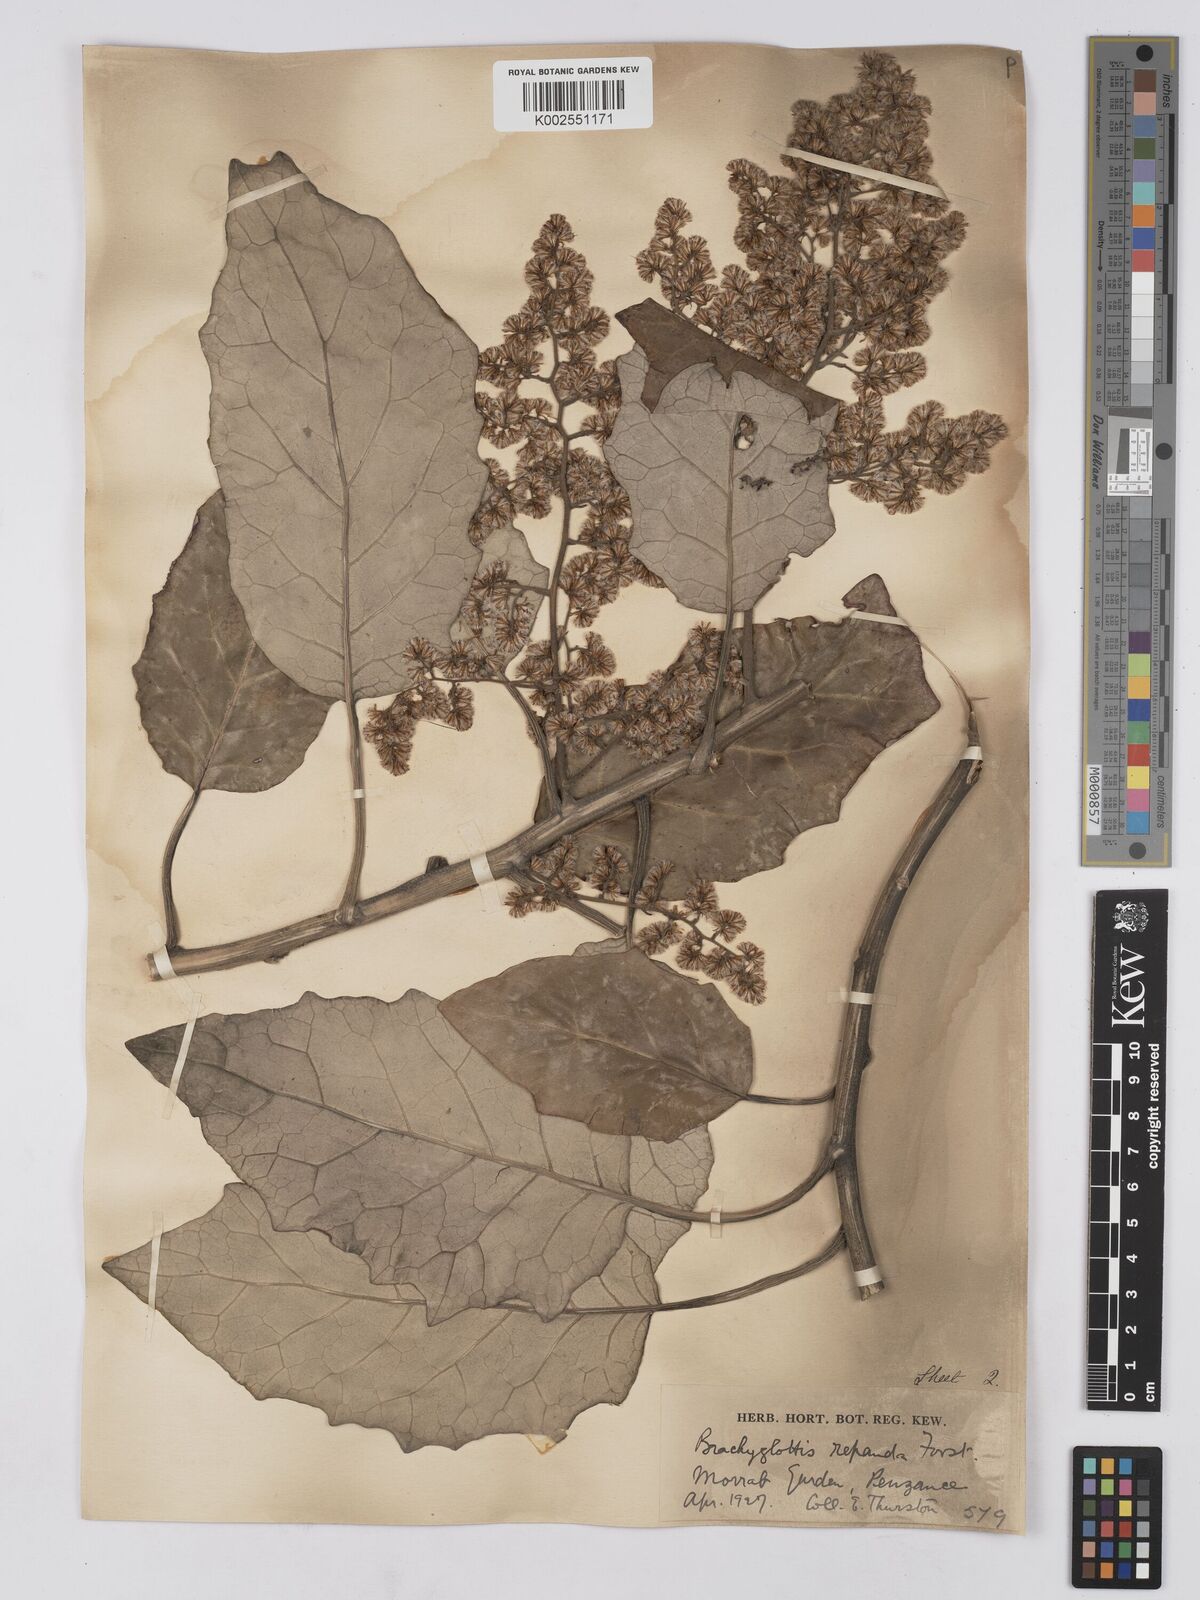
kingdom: Plantae
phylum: Tracheophyta
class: Magnoliopsida
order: Asterales
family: Asteraceae
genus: Brachyglottis
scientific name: Brachyglottis repanda
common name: Hedge ragwort
